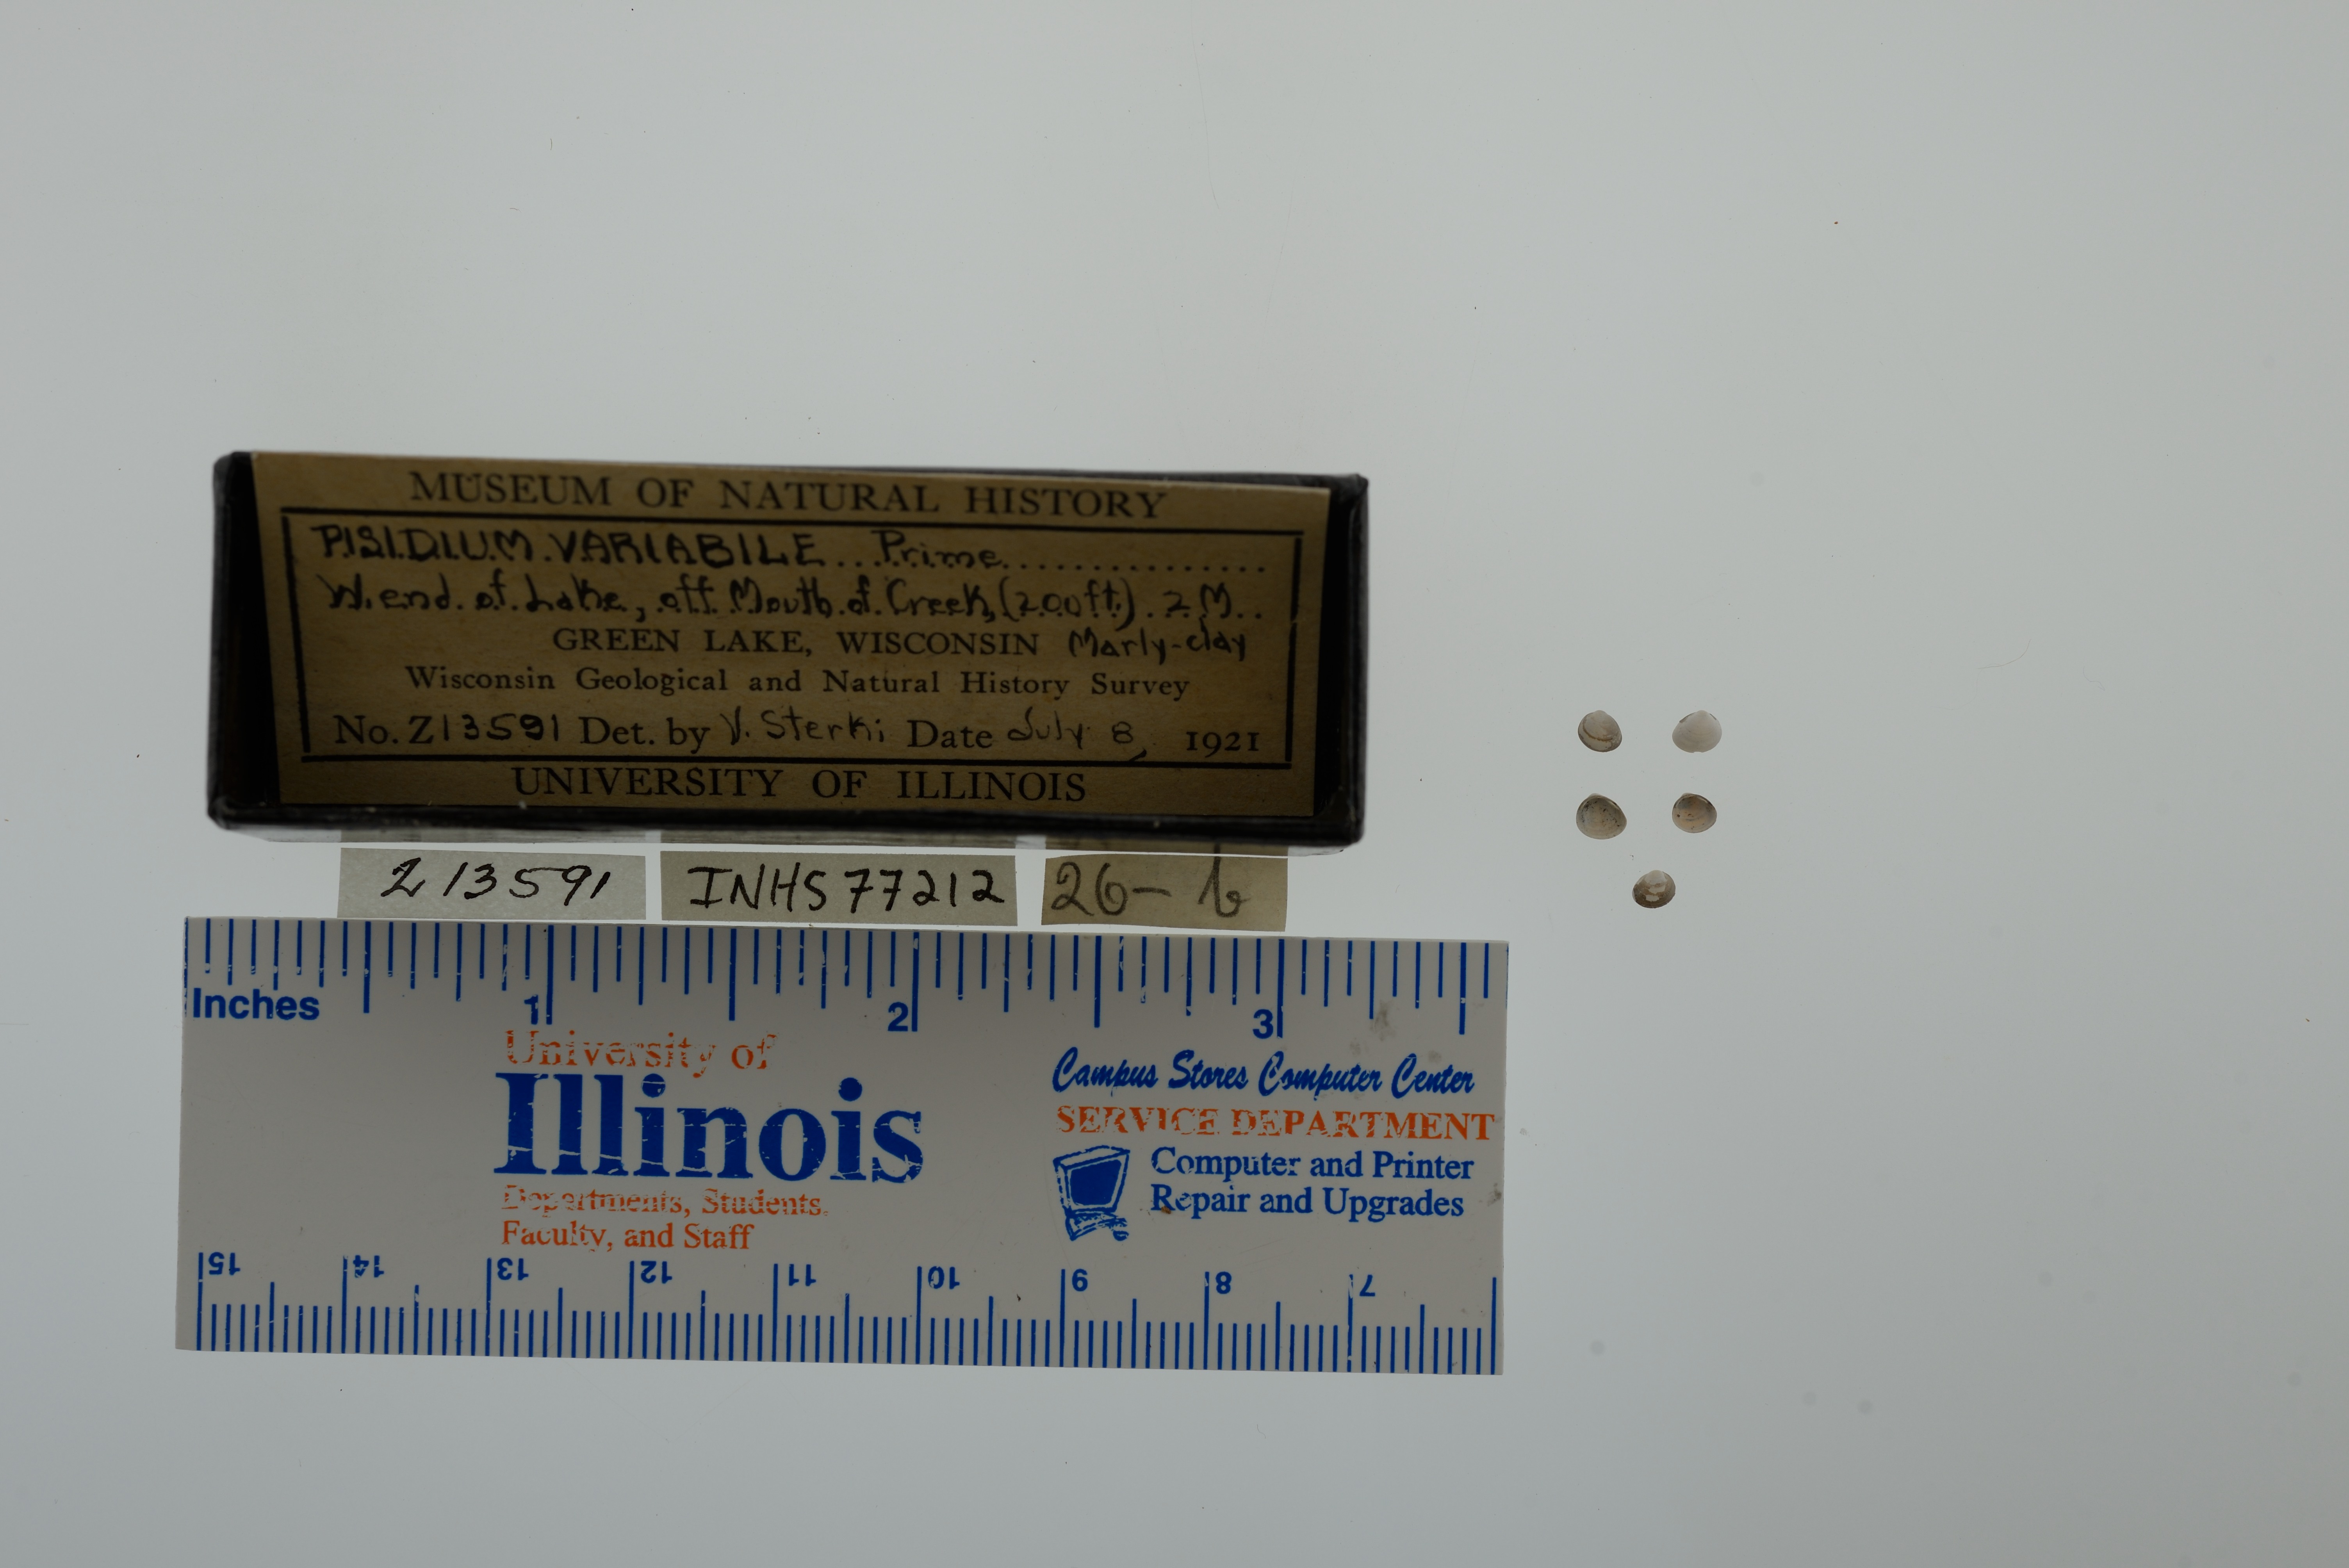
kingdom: Animalia
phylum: Mollusca
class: Bivalvia
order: Sphaeriida
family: Sphaeriidae
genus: Euglesa
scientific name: Euglesa variabilis
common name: Triangular peaclam
